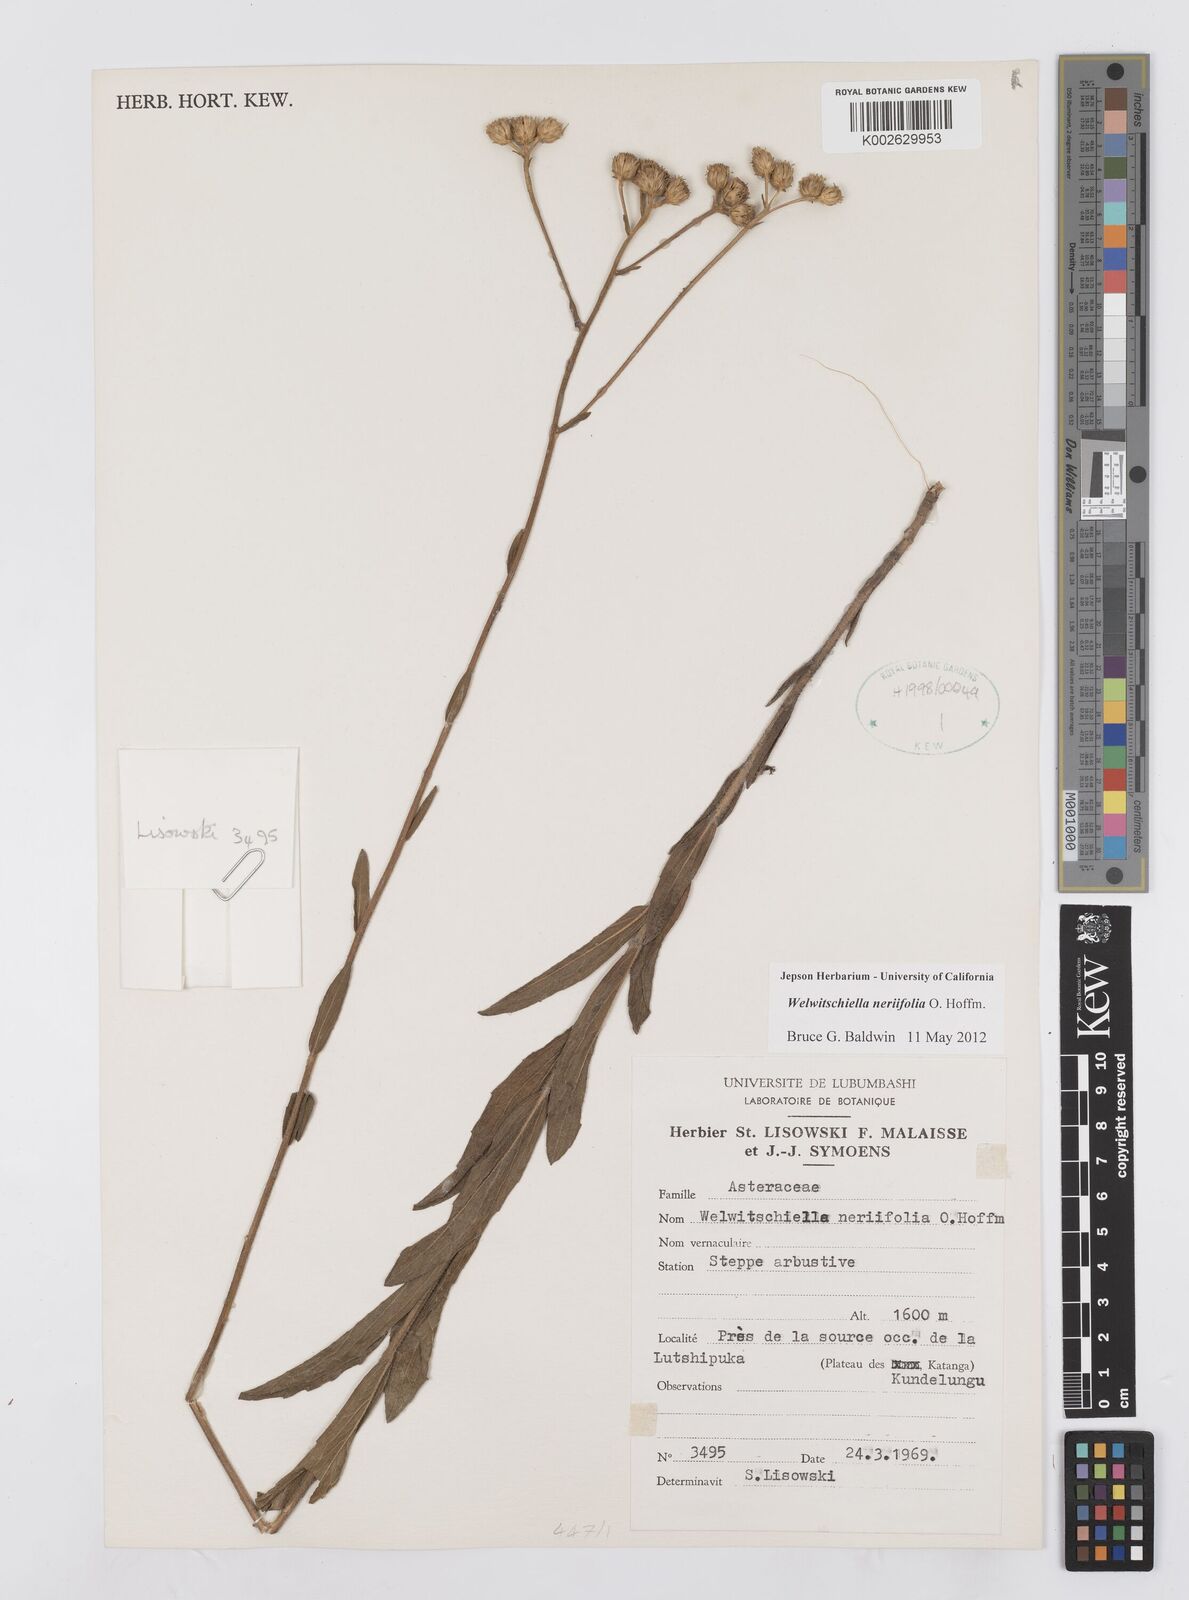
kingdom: Plantae
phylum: Tracheophyta
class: Magnoliopsida
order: Asterales
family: Asteraceae
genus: Welwitschiella
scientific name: Welwitschiella neriifolia
